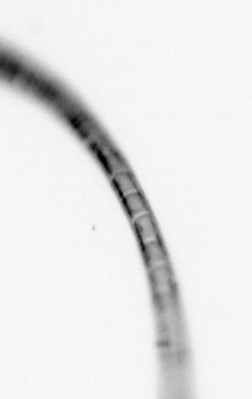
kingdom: Chromista
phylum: Ochrophyta
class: Bacillariophyceae
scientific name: Bacillariophyceae
